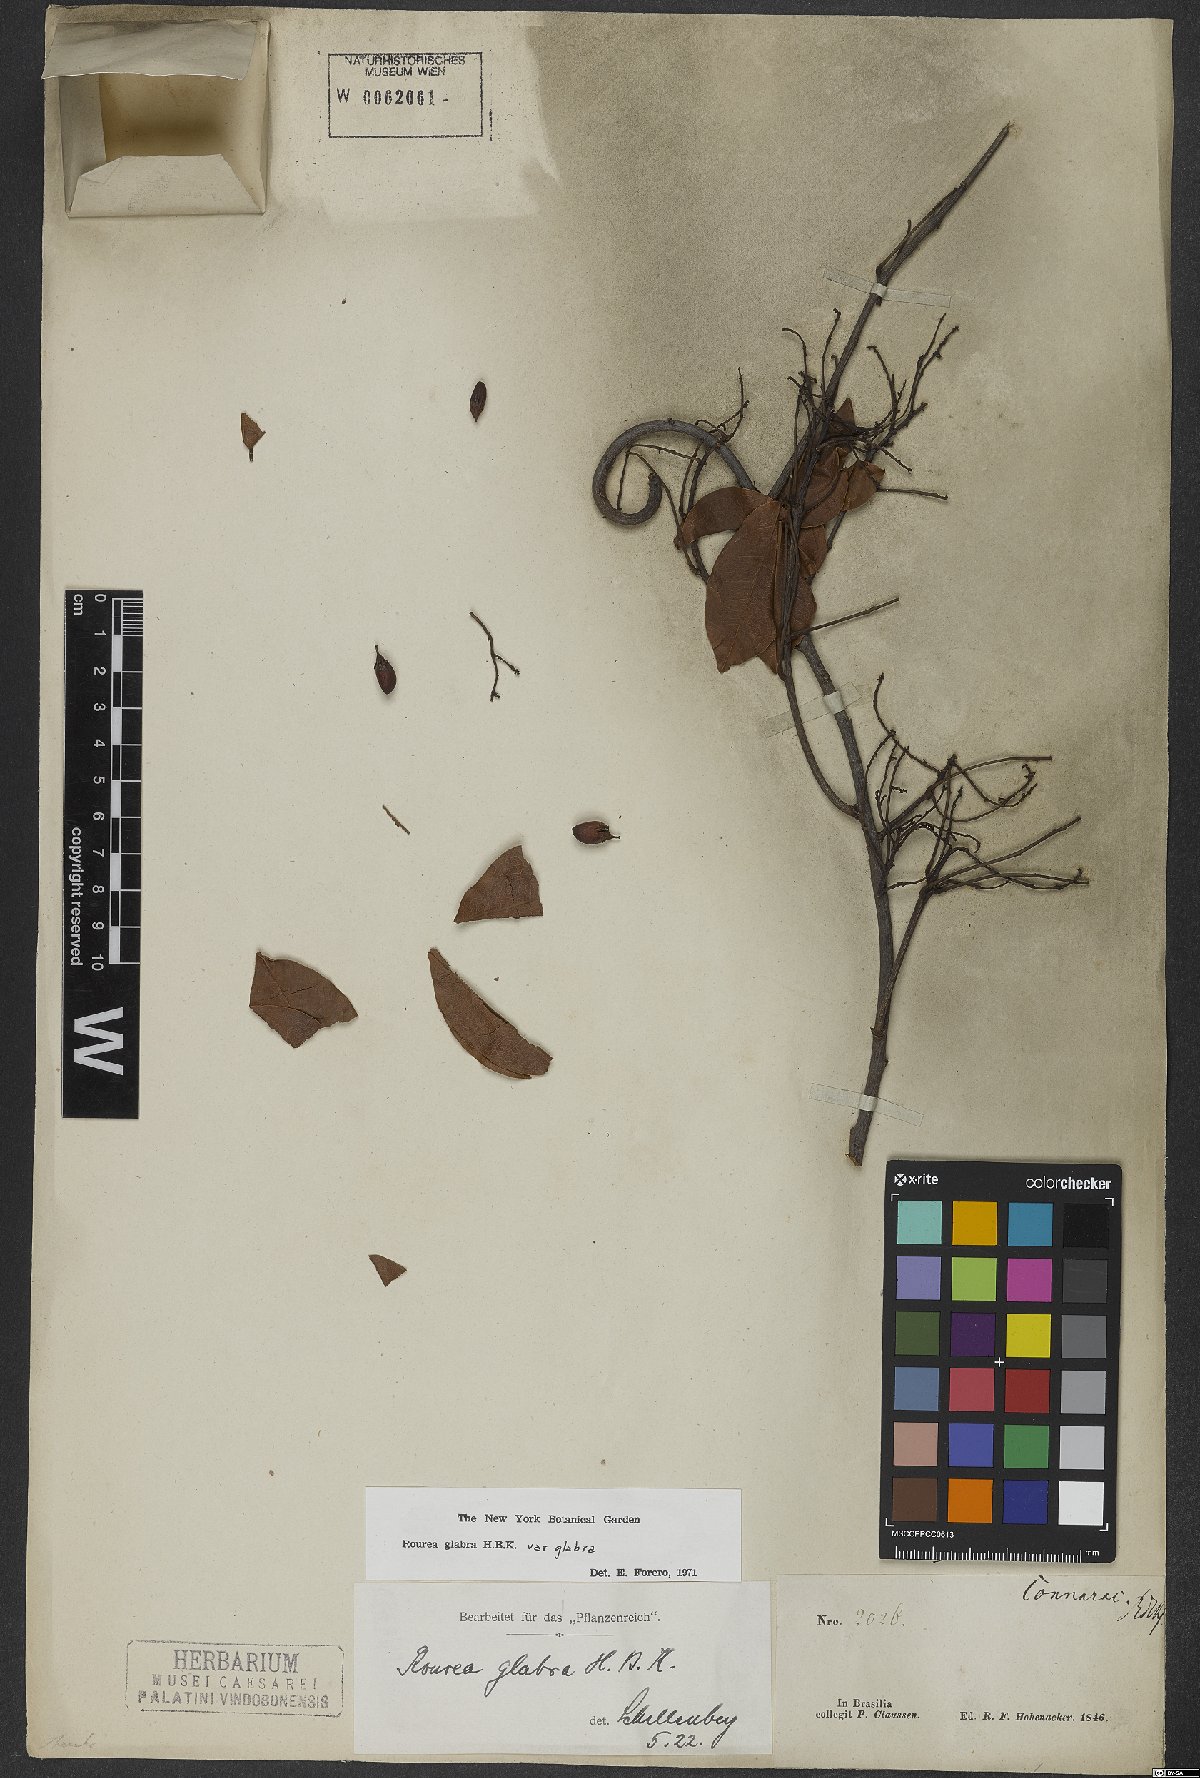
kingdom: Plantae
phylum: Tracheophyta
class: Magnoliopsida
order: Oxalidales
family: Connaraceae
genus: Rourea
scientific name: Rourea glabra
